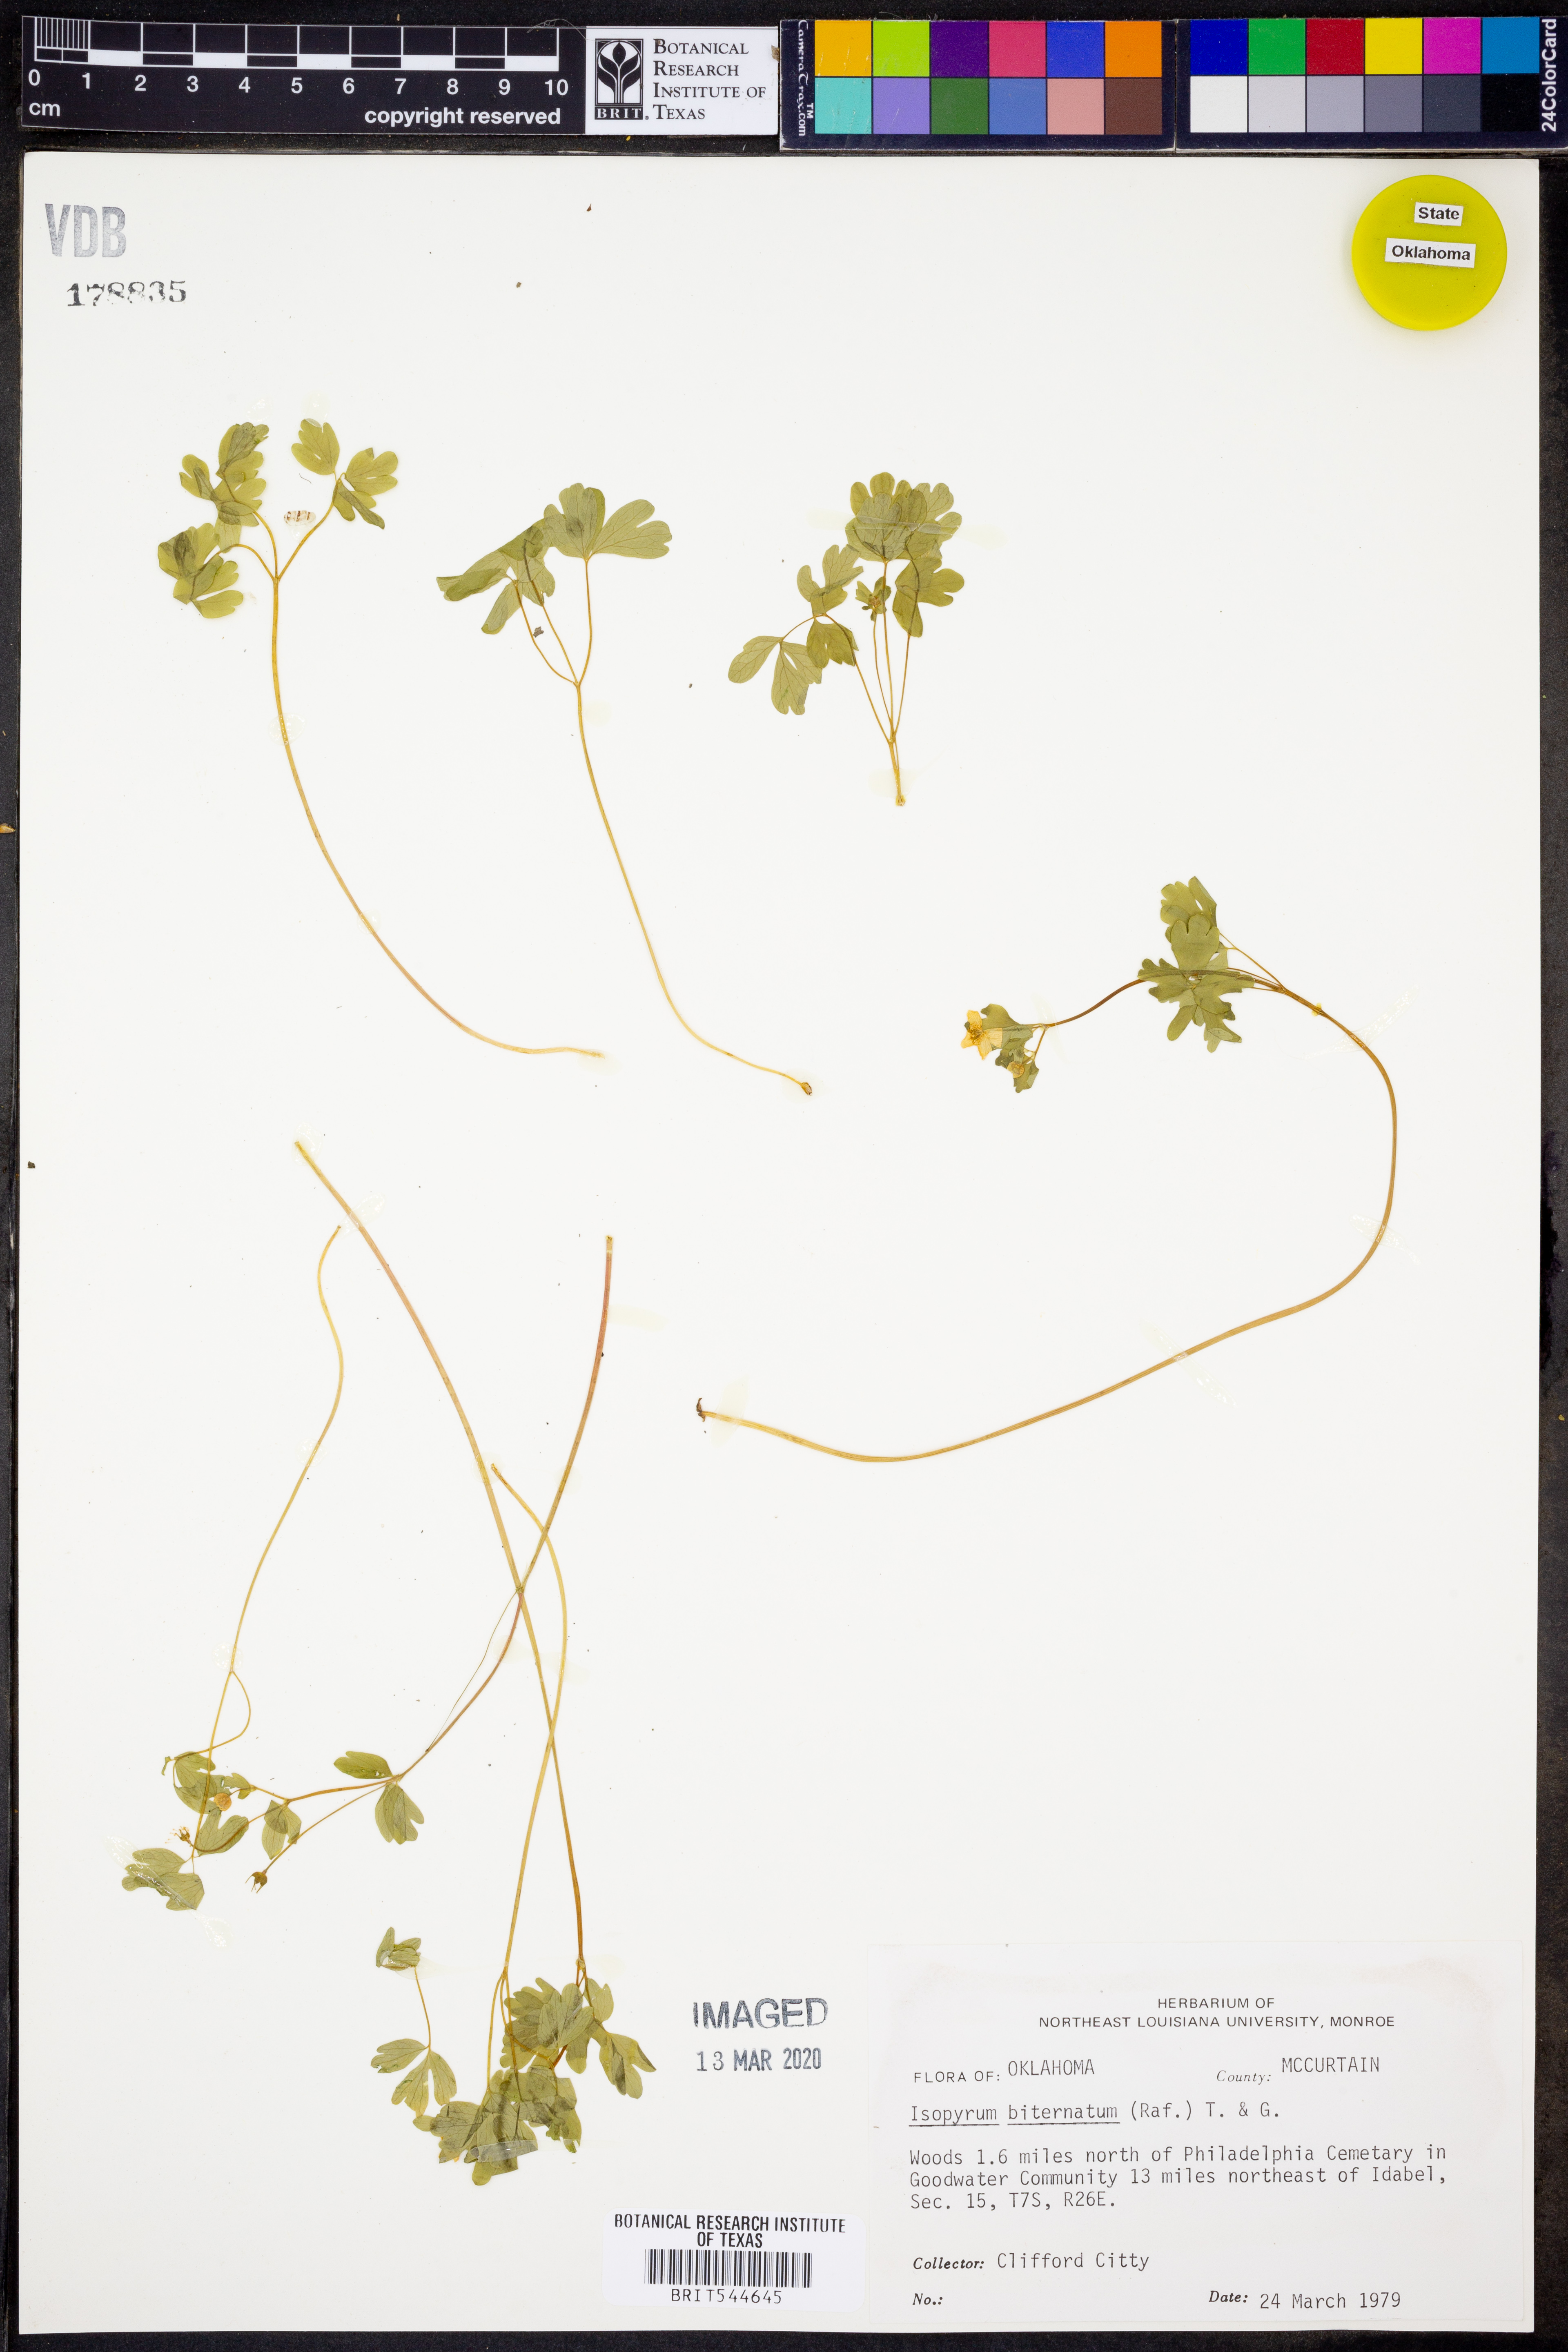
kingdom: Plantae
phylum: Tracheophyta
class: Magnoliopsida
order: Ranunculales
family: Ranunculaceae
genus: Enemion
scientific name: Enemion biternatum
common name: Eastern false rue-anemone
